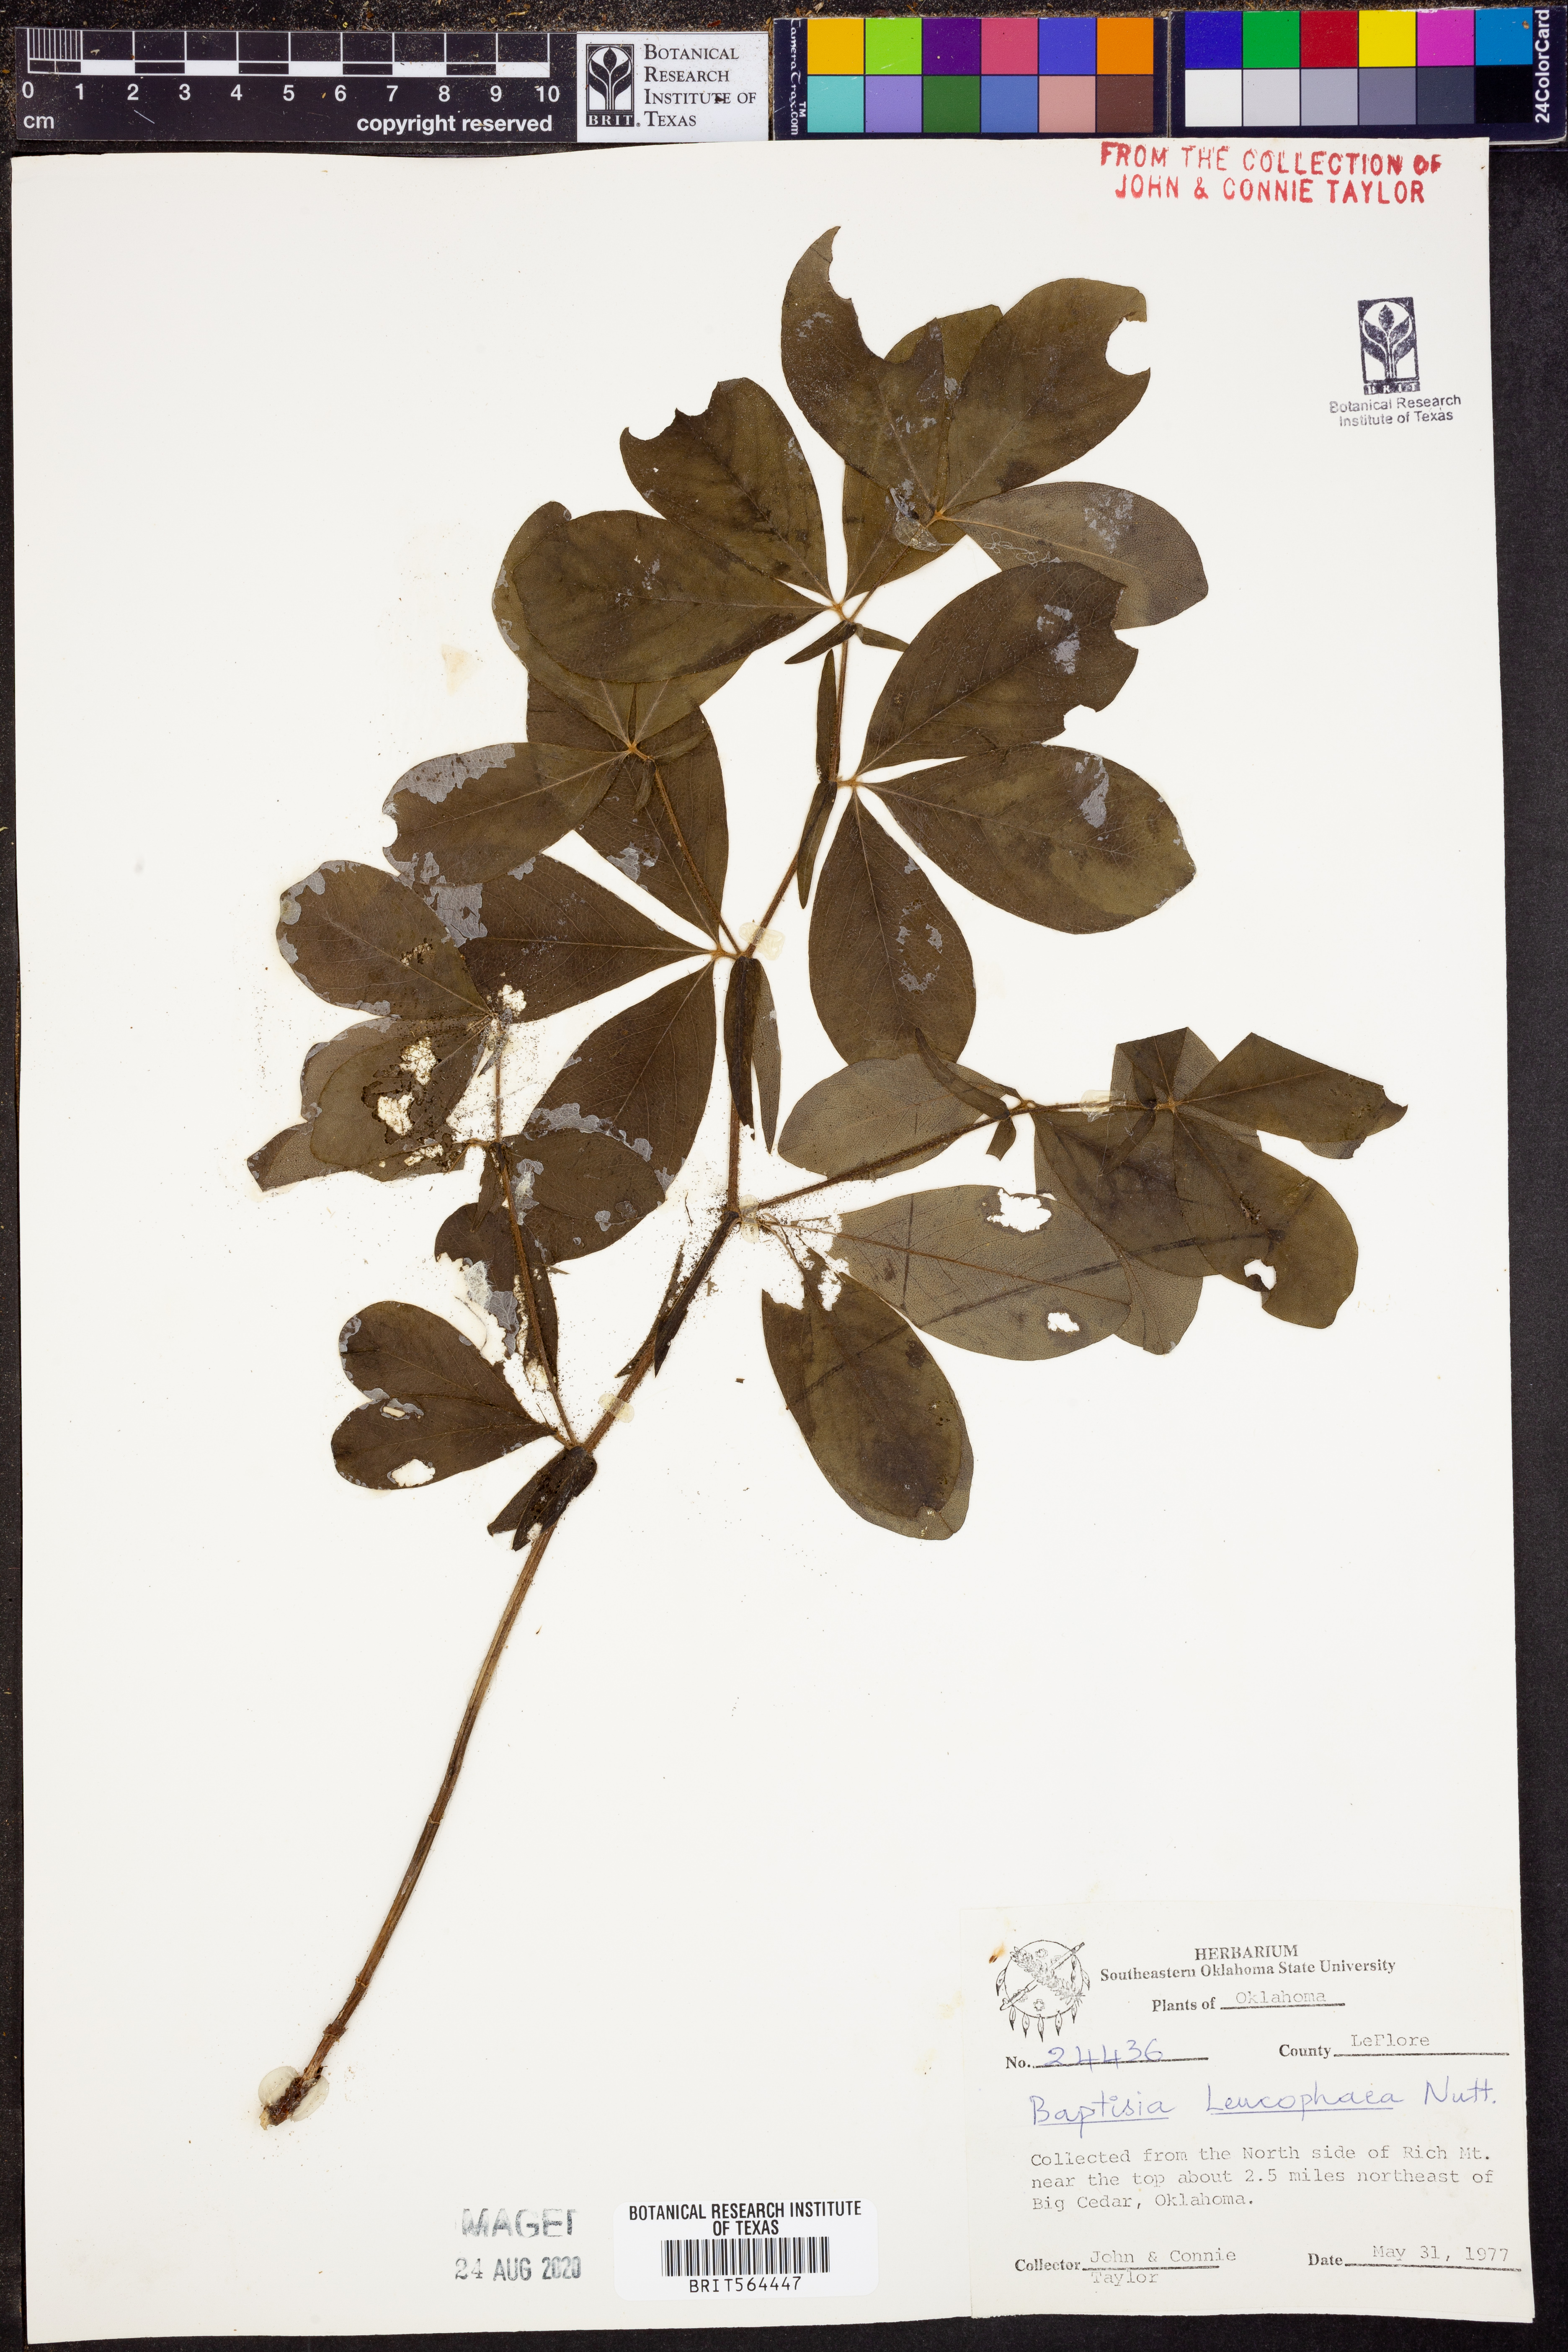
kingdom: Plantae
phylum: Tracheophyta
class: Magnoliopsida
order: Fabales
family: Fabaceae
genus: Baptisia
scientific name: Baptisia bracteata
